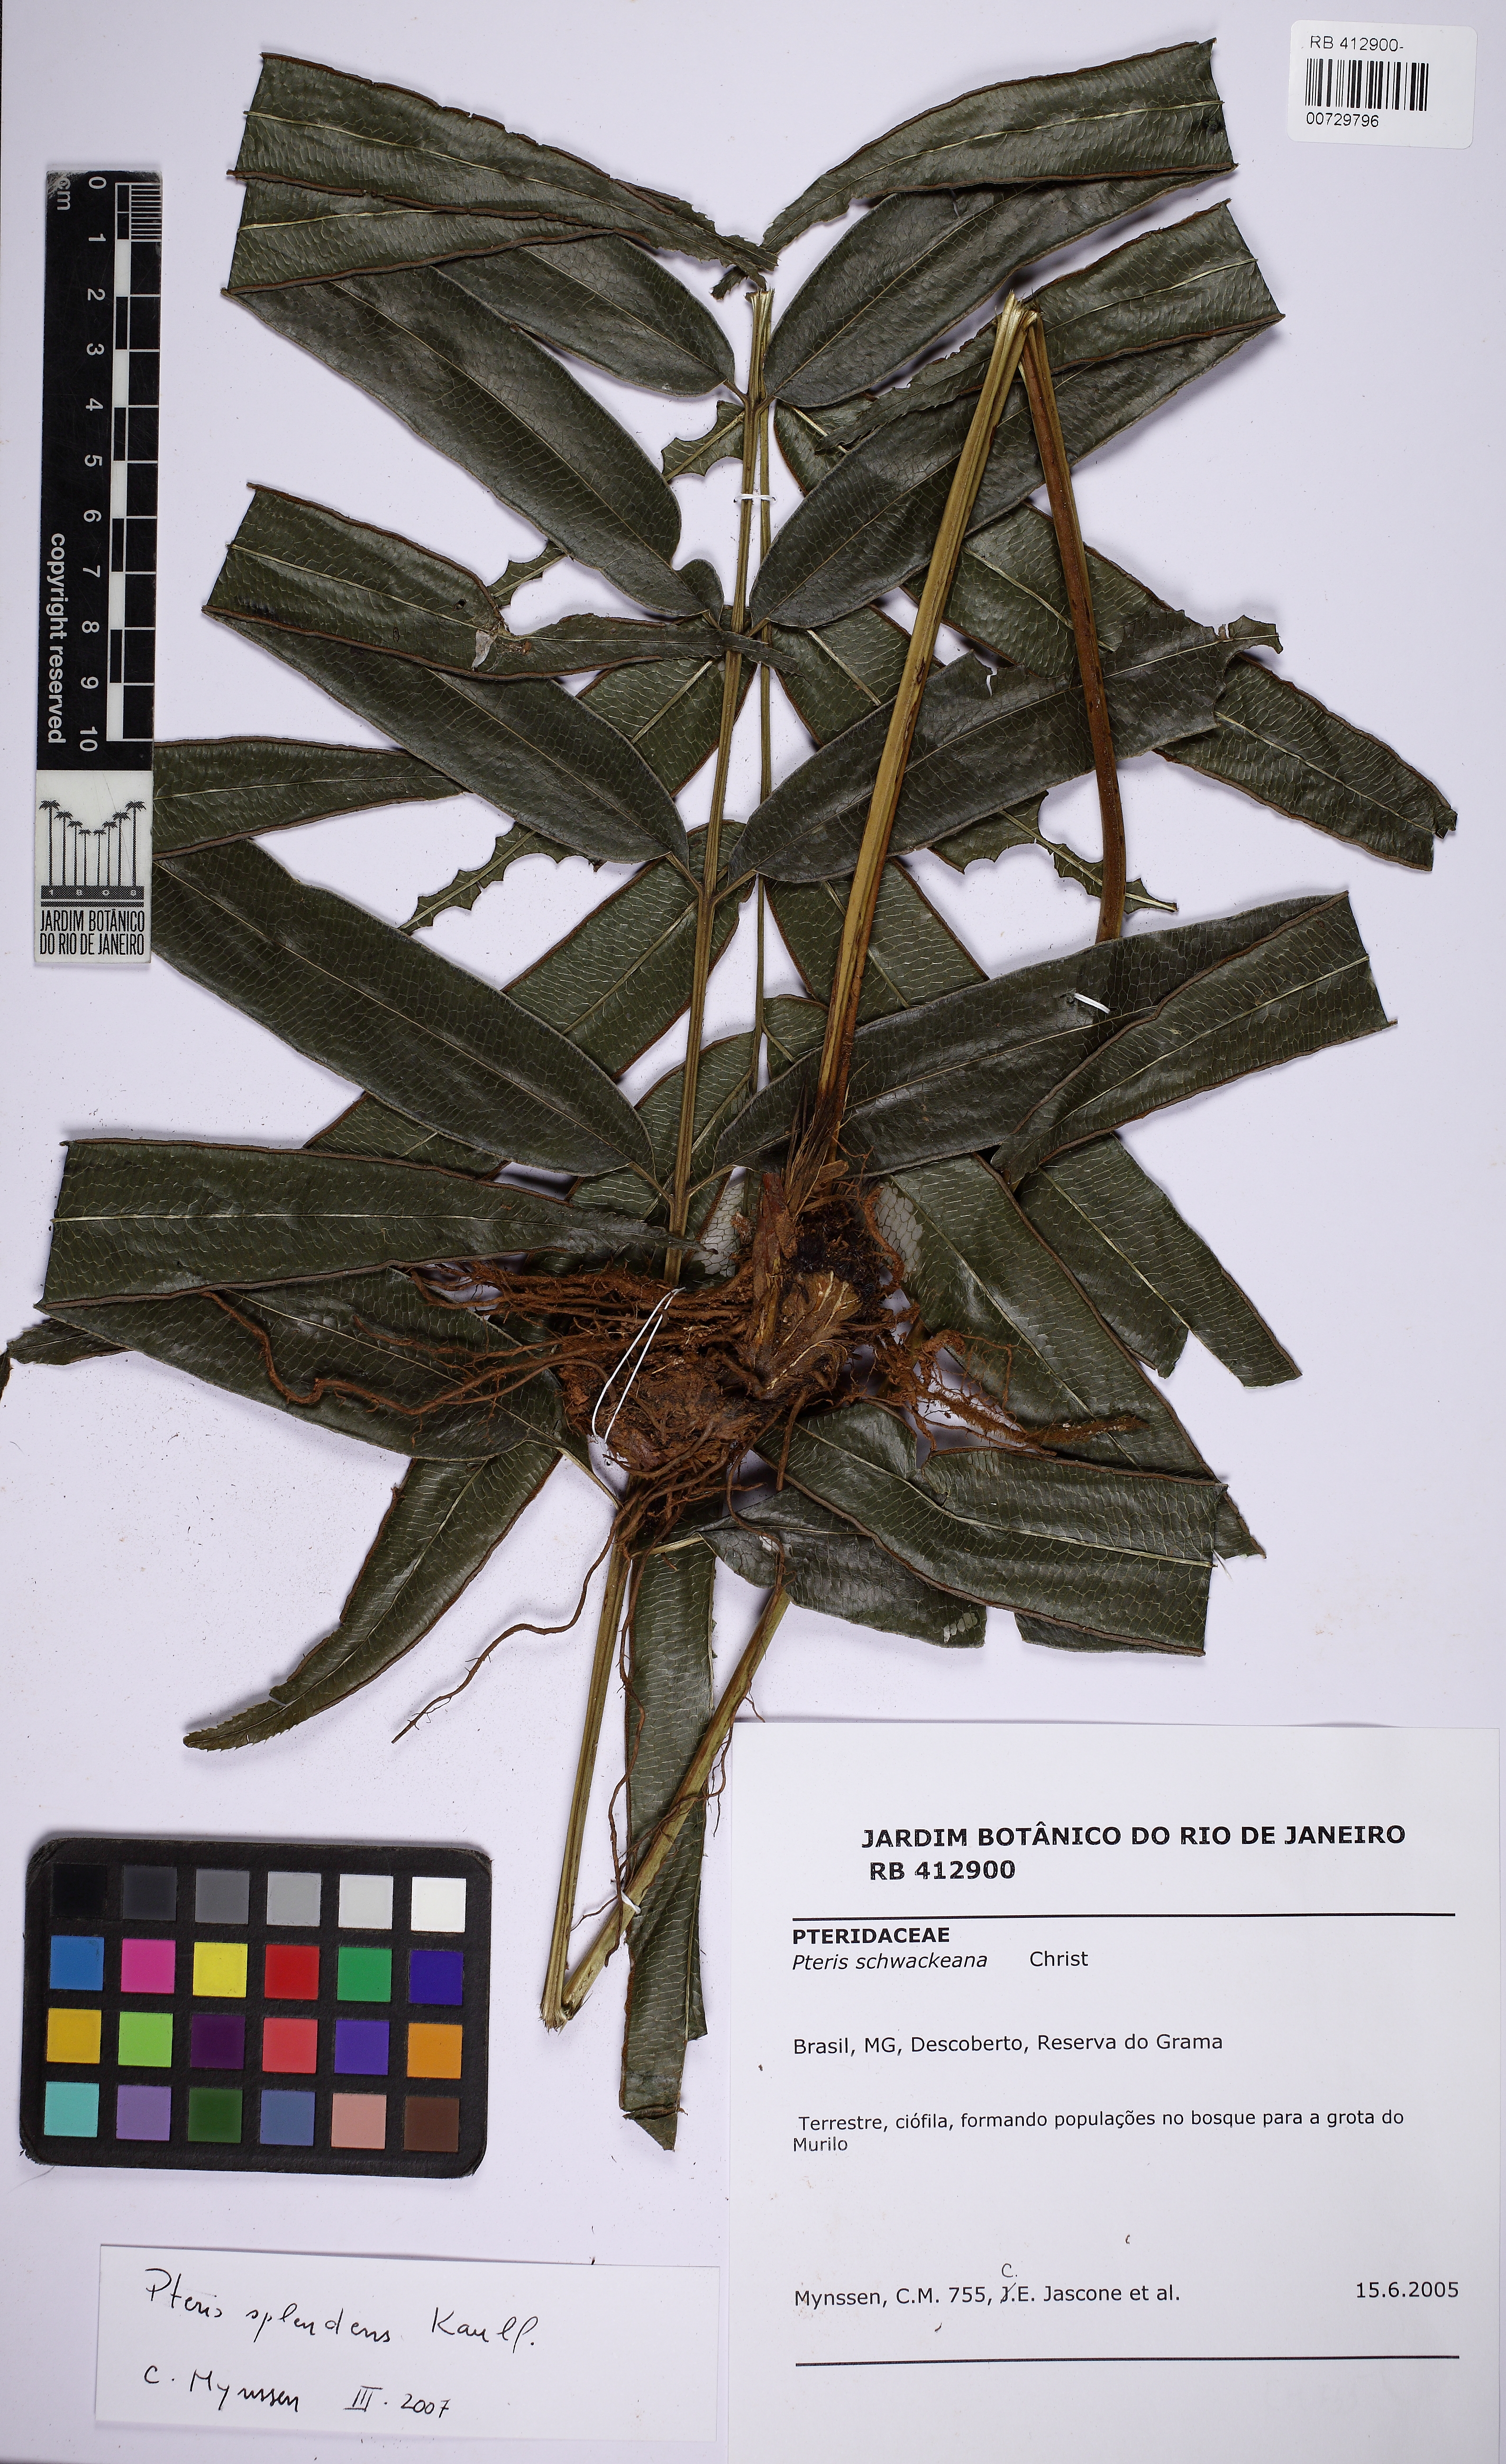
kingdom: Plantae
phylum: Tracheophyta
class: Polypodiopsida
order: Polypodiales
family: Pteridaceae
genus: Pteris
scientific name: Pteris splendens
